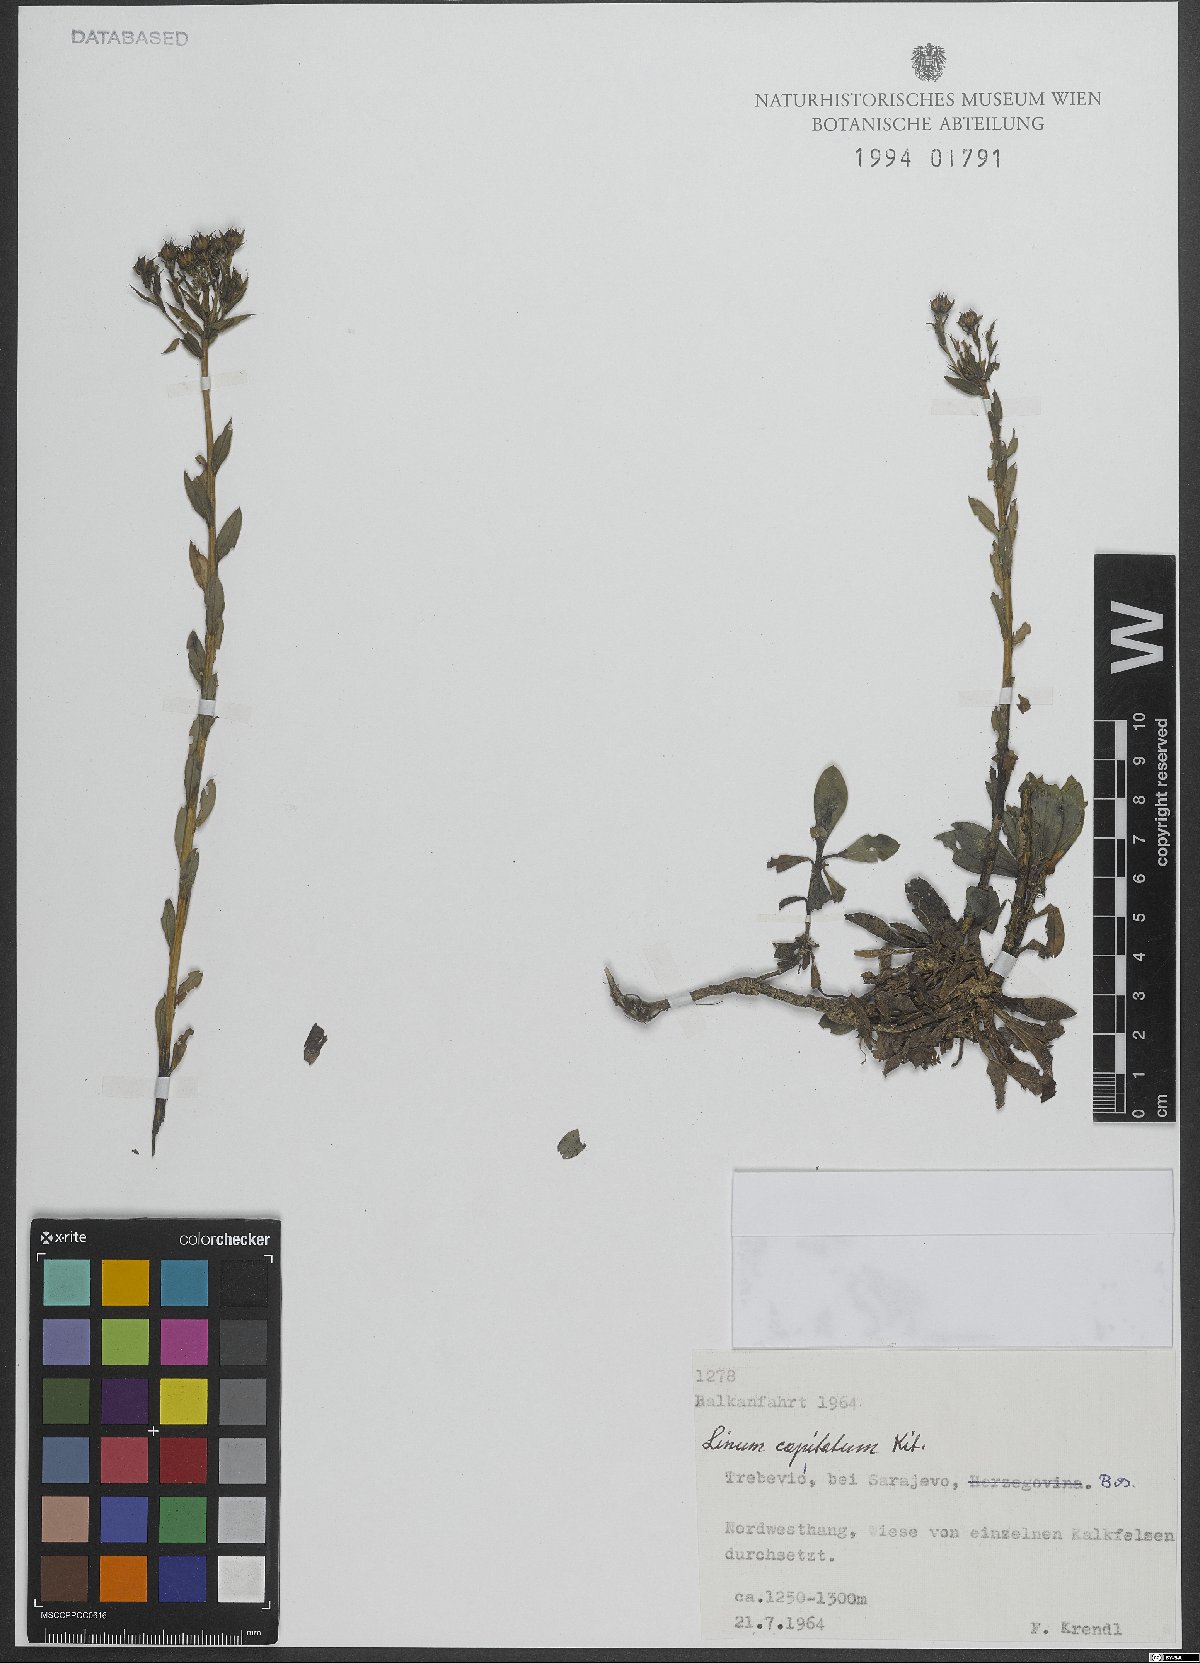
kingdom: Plantae
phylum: Tracheophyta
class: Magnoliopsida
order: Malpighiales
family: Linaceae
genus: Linum
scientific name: Linum capitatum
